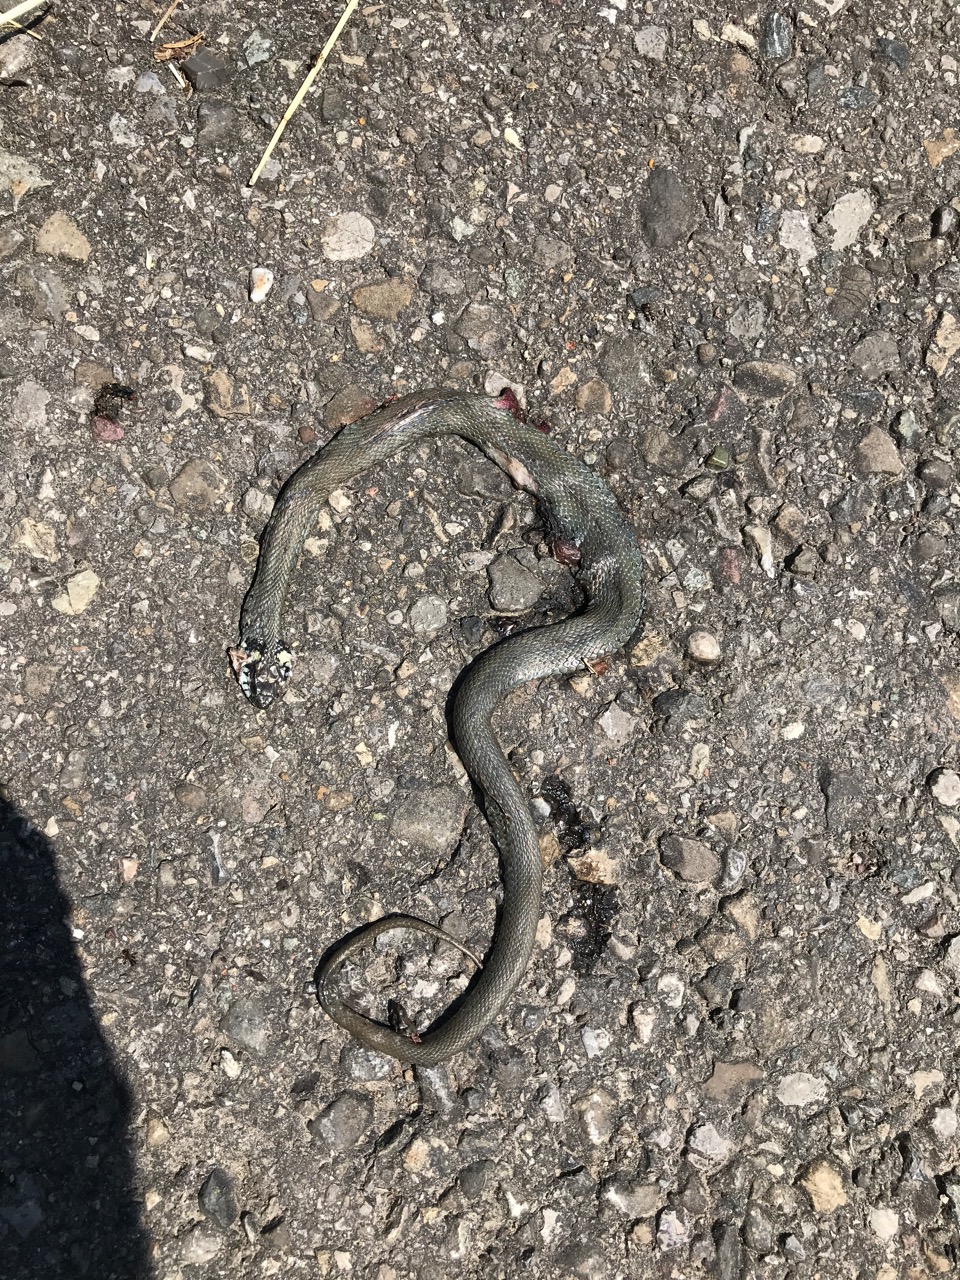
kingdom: Animalia
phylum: Chordata
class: Squamata
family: Colubridae
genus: Natrix
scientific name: Natrix natrix
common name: Grass snake
